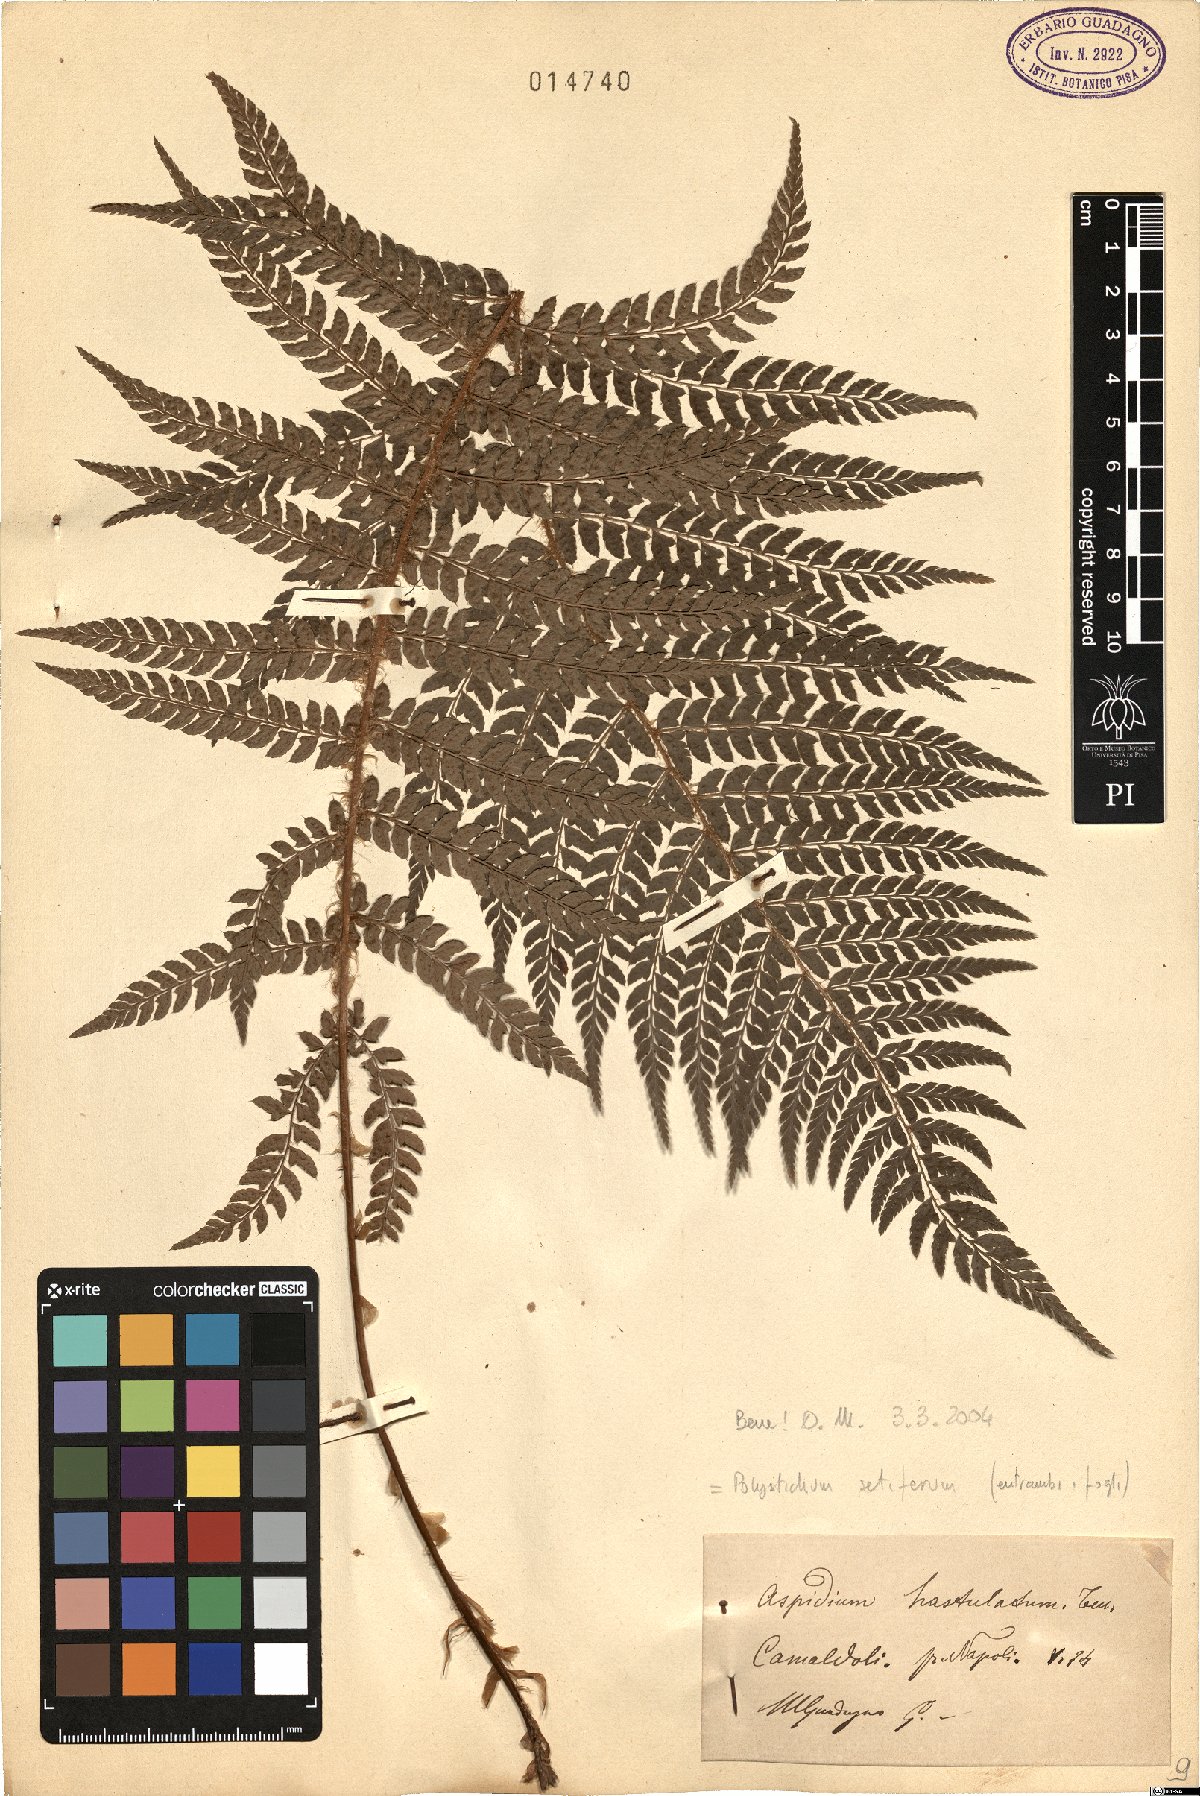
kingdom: Plantae
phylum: Tracheophyta
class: Polypodiopsida
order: Polypodiales
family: Dryopteridaceae
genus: Polystichum
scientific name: Polystichum setiferum
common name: Soft shield-fern
